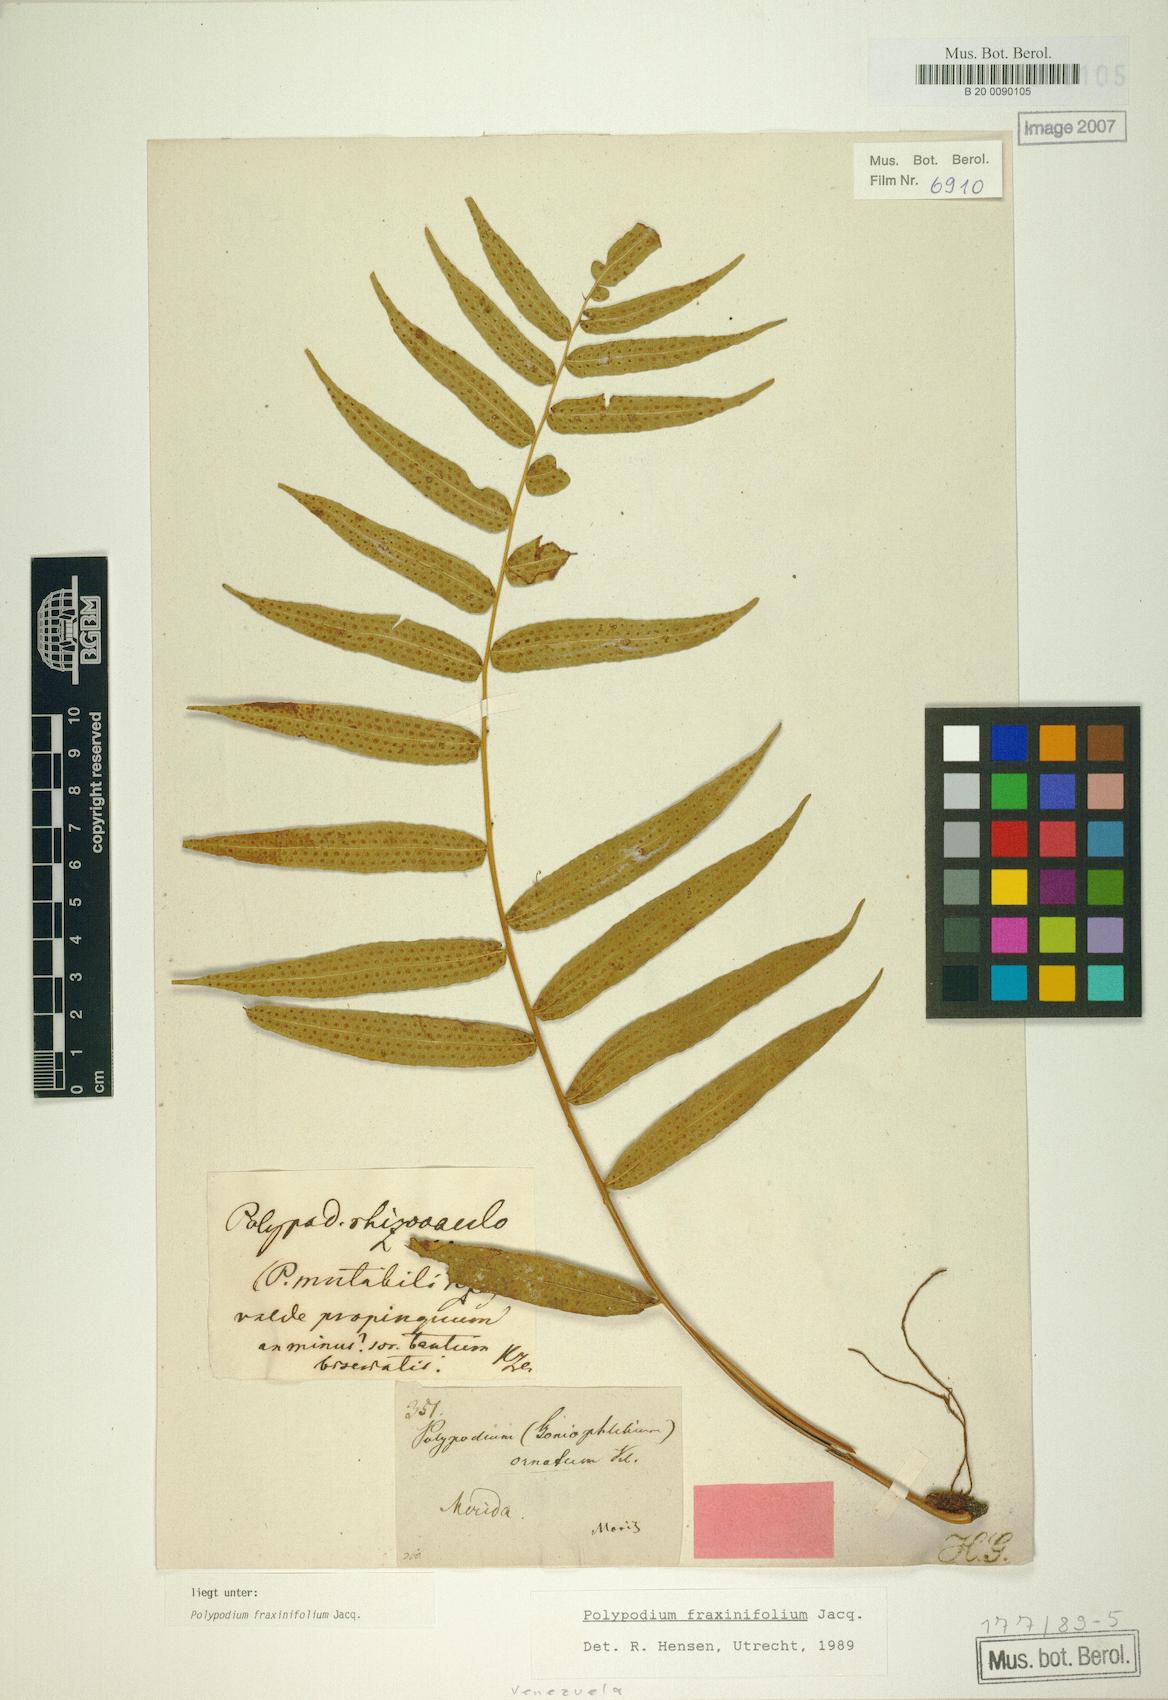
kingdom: Plantae
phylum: Tracheophyta
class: Polypodiopsida
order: Polypodiales
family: Polypodiaceae
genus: Serpocaulon
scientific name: Serpocaulon fraxinifolium
